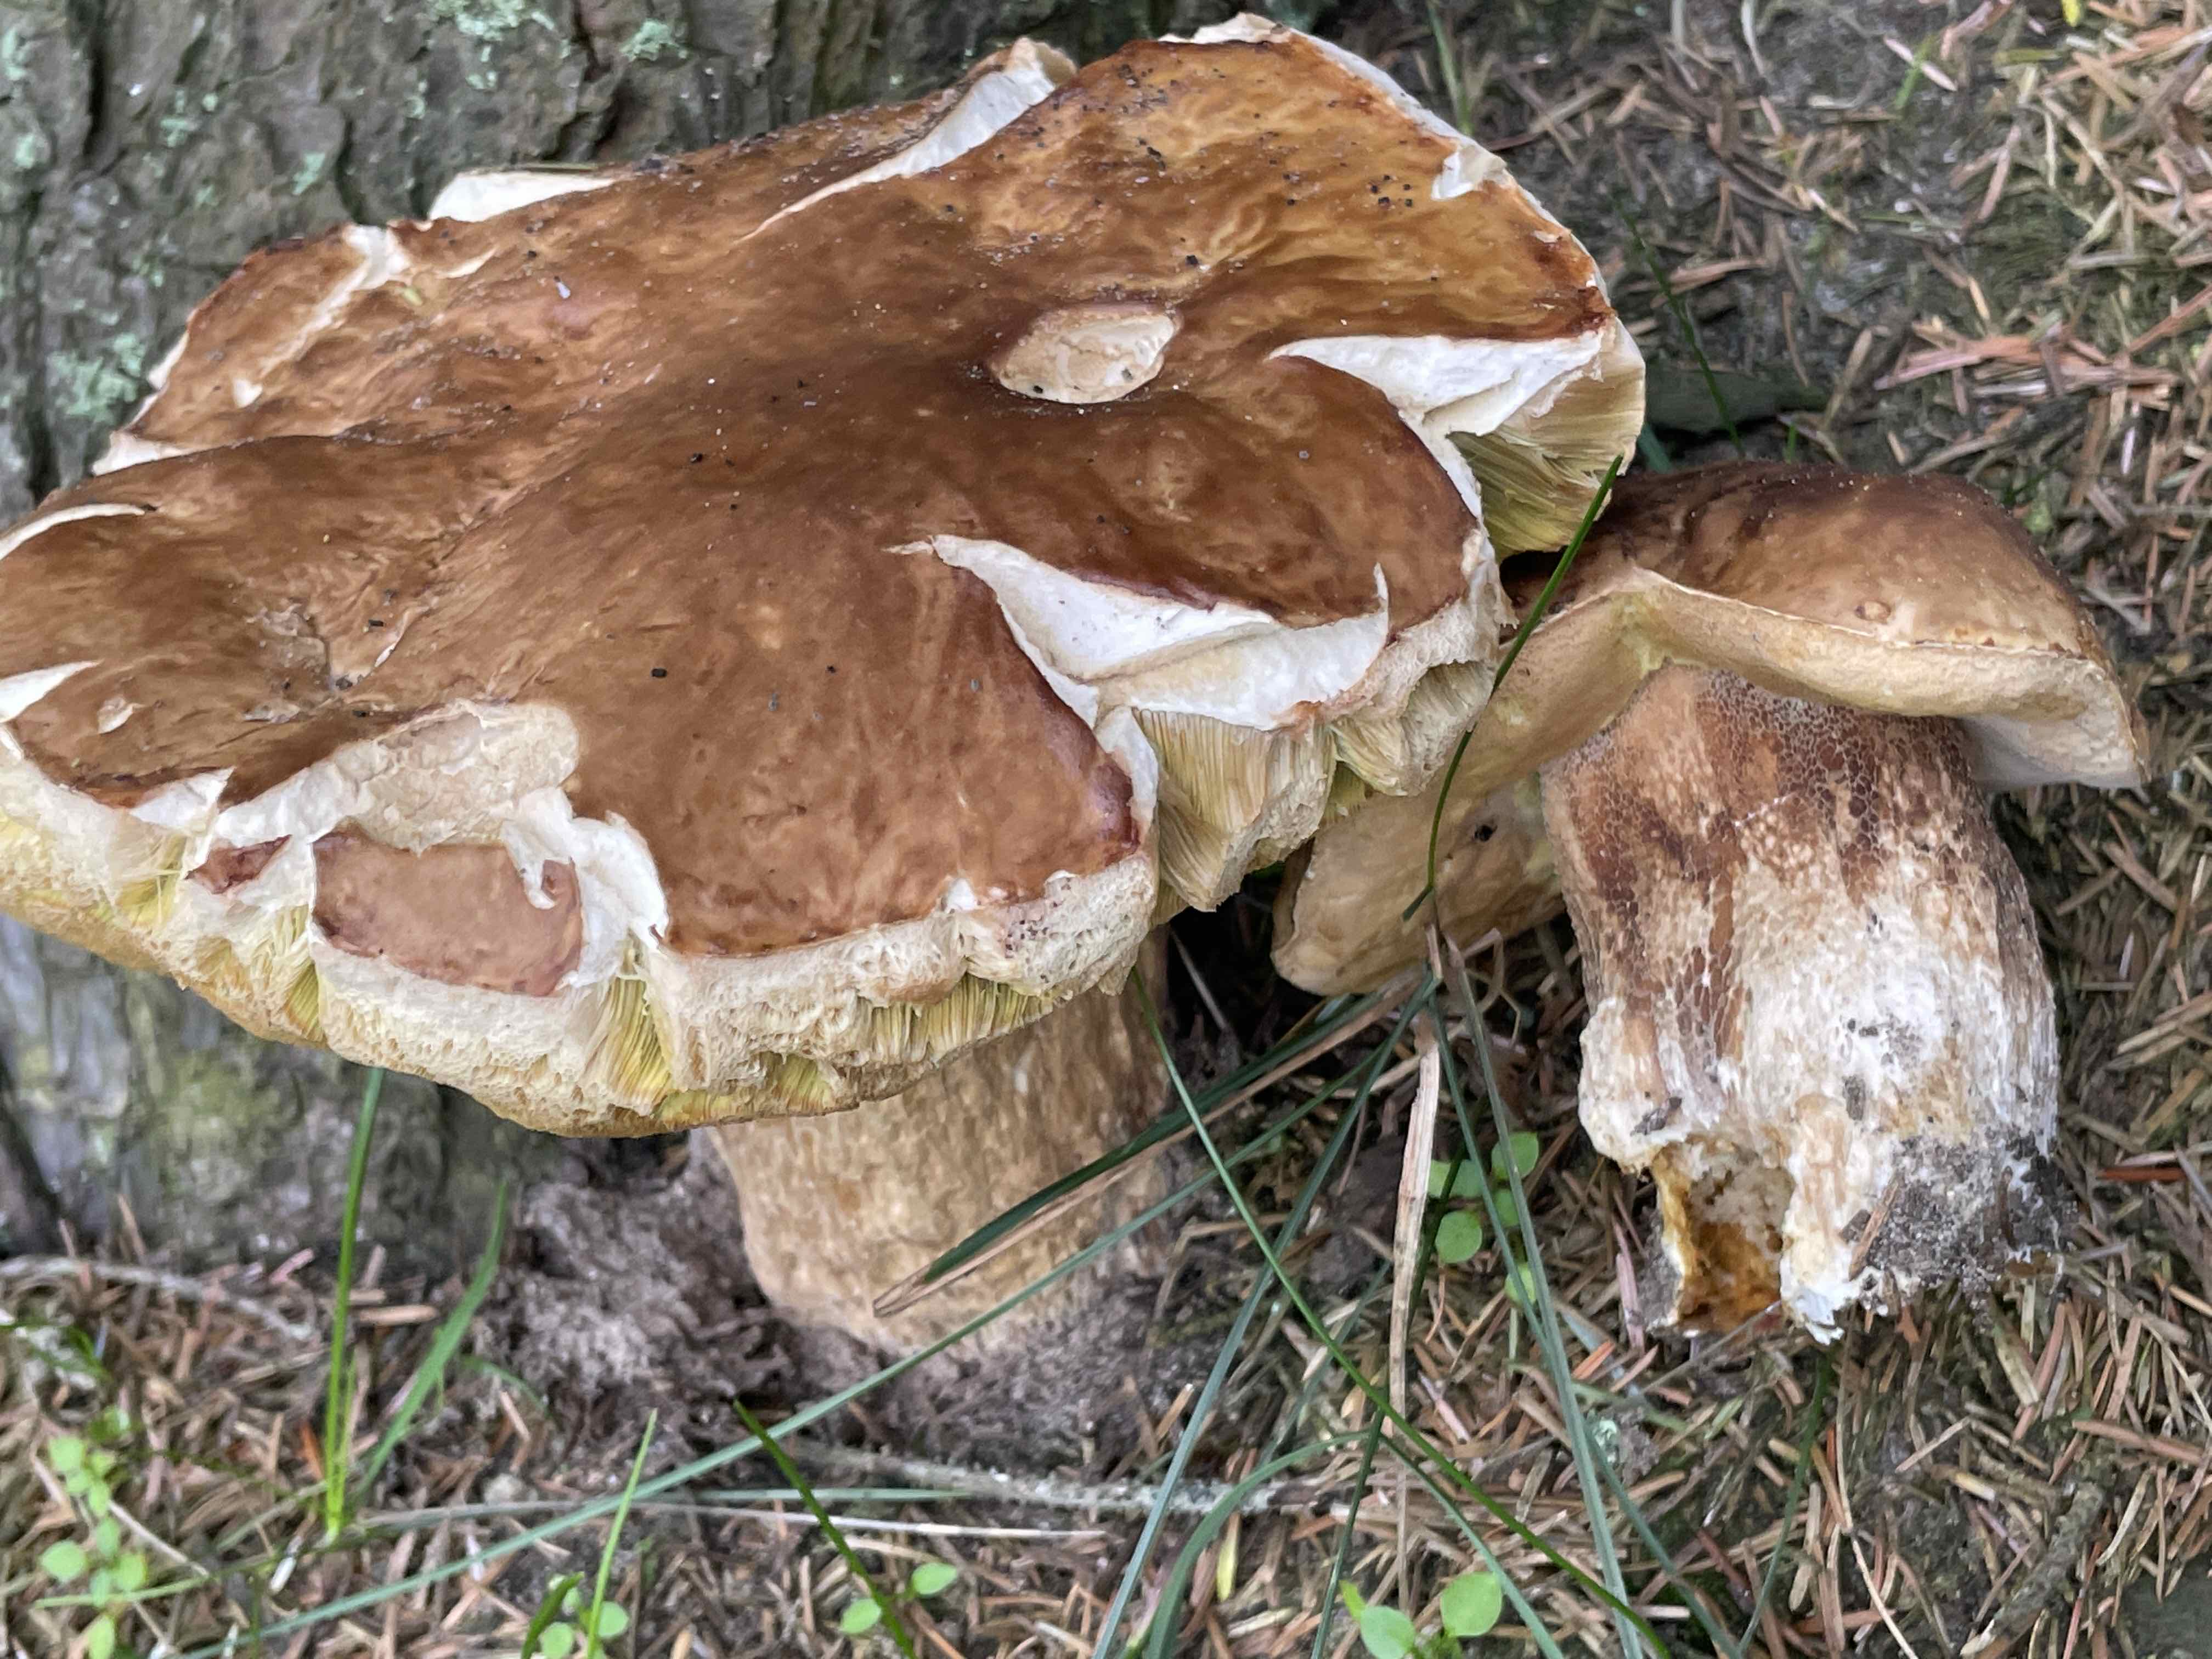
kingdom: Fungi
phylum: Basidiomycota
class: Agaricomycetes
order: Boletales
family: Boletaceae
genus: Boletus
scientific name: Boletus edulis
